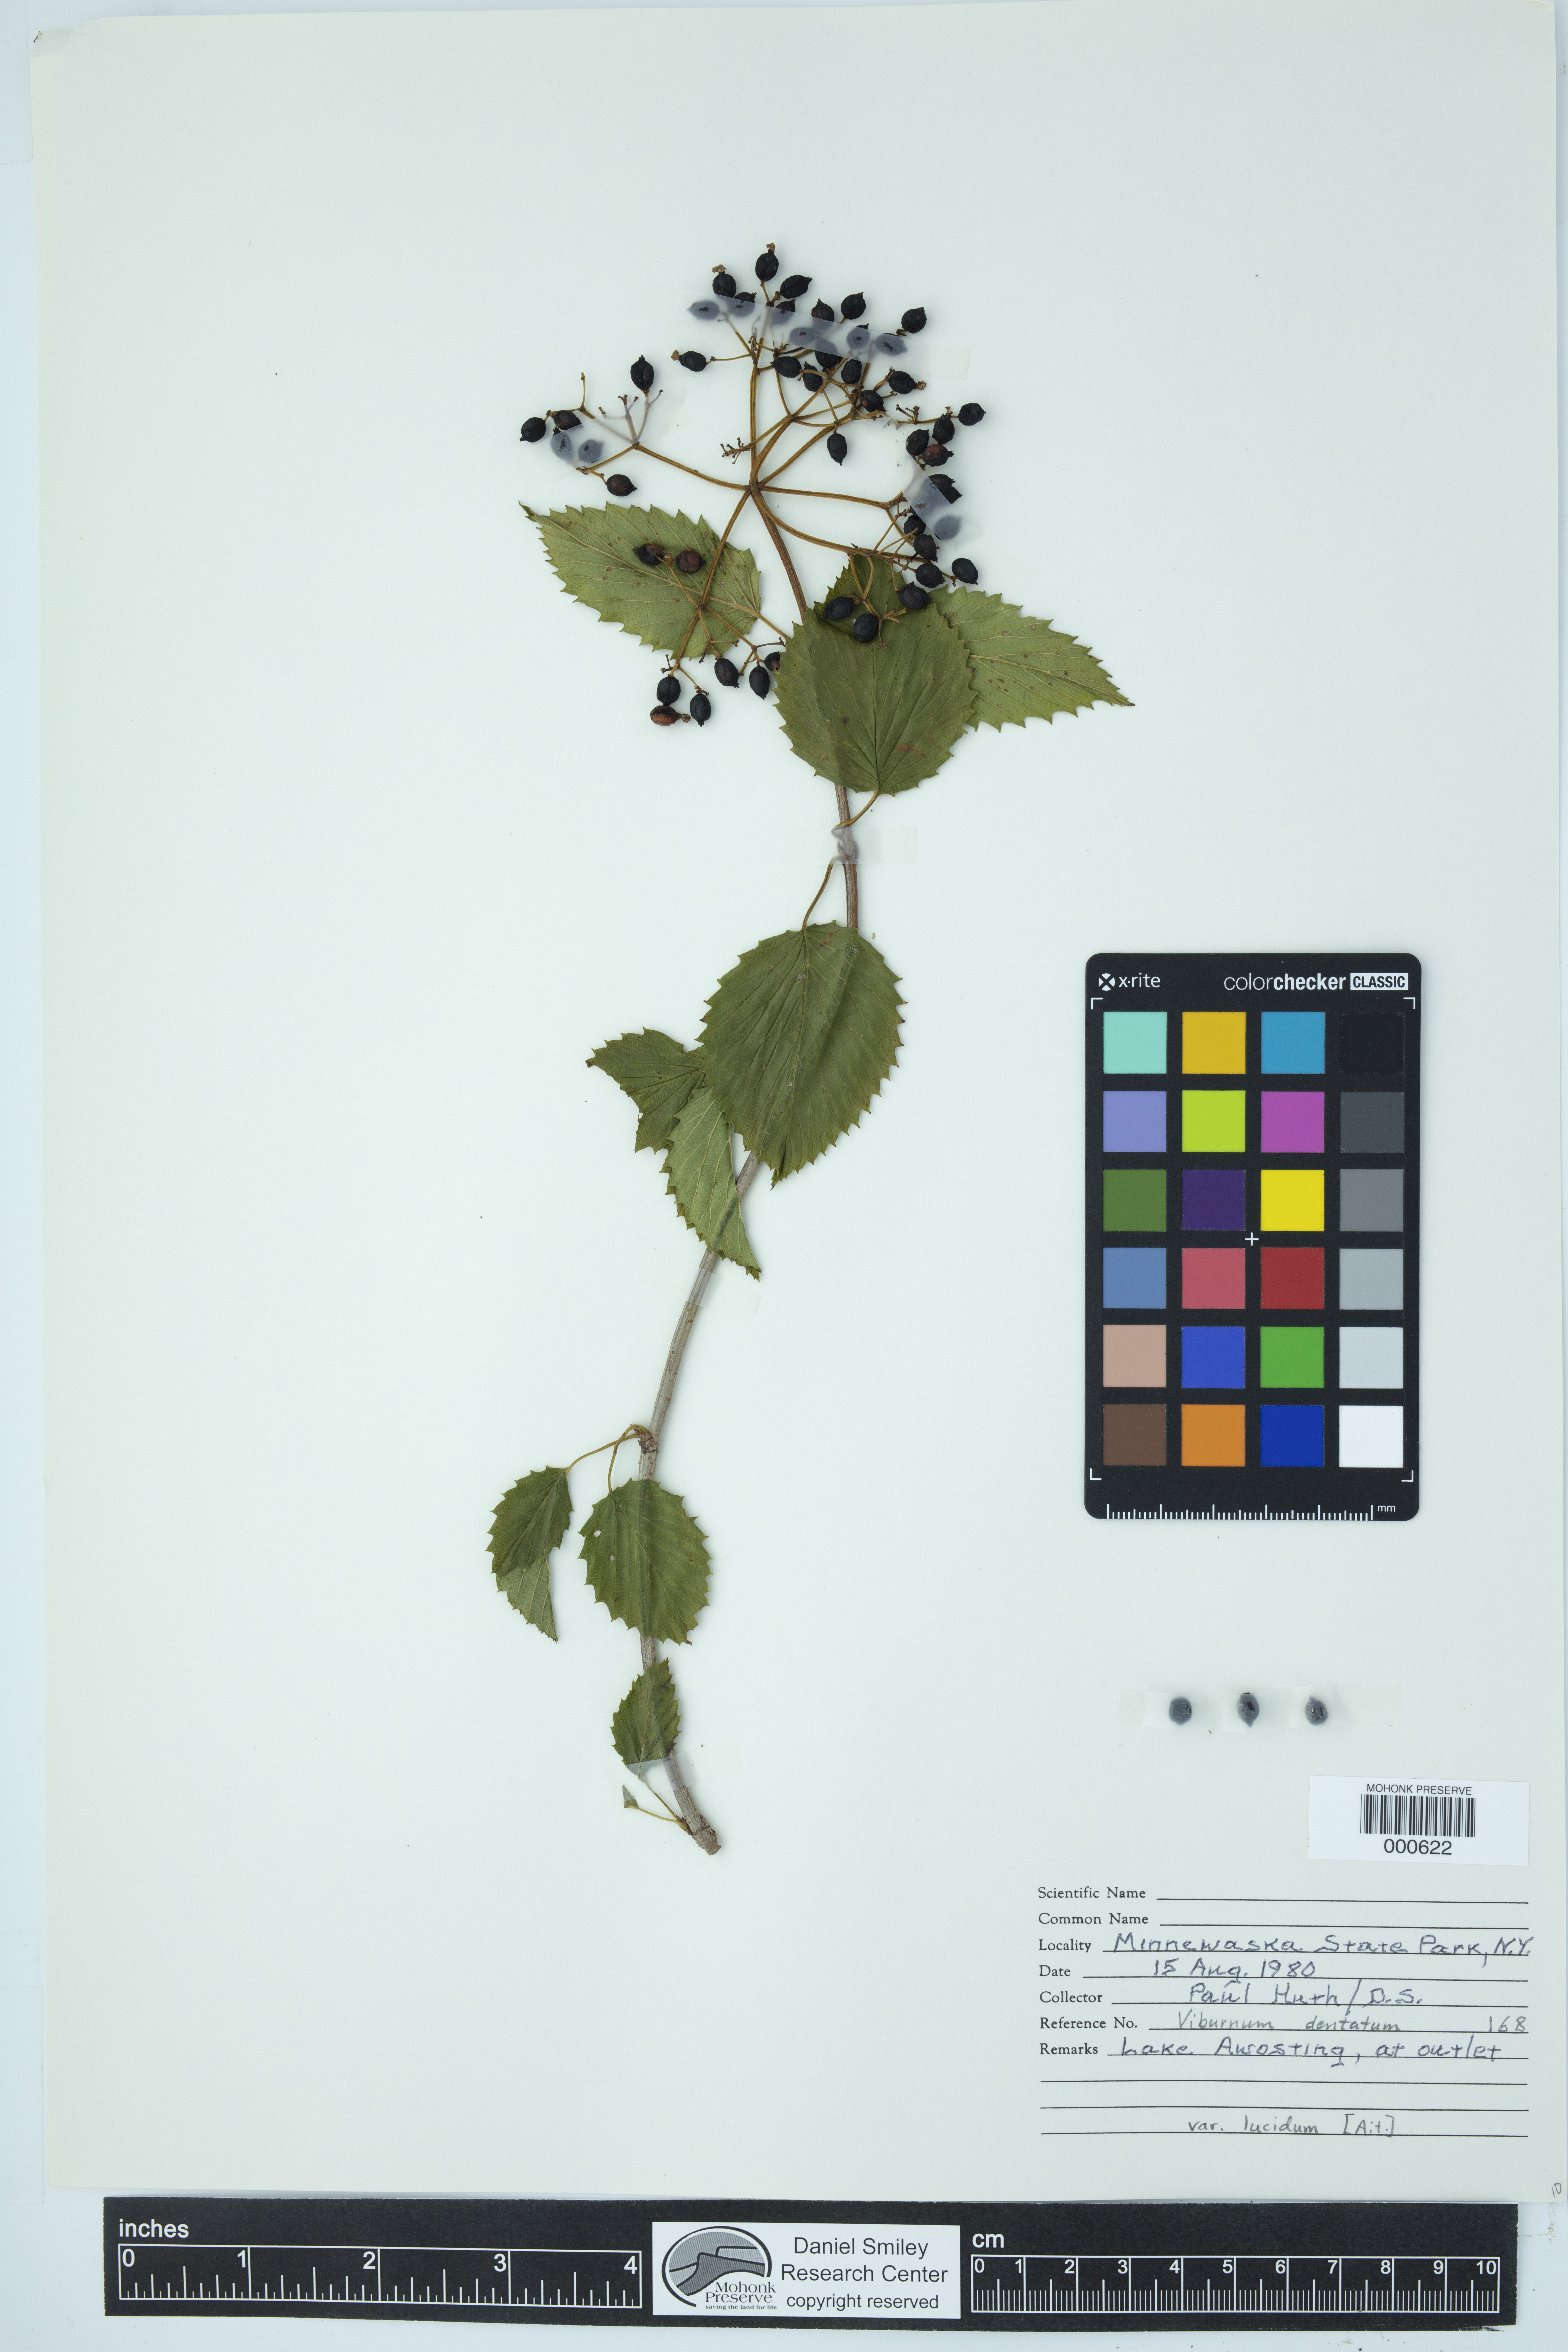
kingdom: Plantae
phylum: Tracheophyta
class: Magnoliopsida
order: Dipsacales
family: Viburnaceae
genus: Viburnum
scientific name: Viburnum dentatum
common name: Arrow-wood
